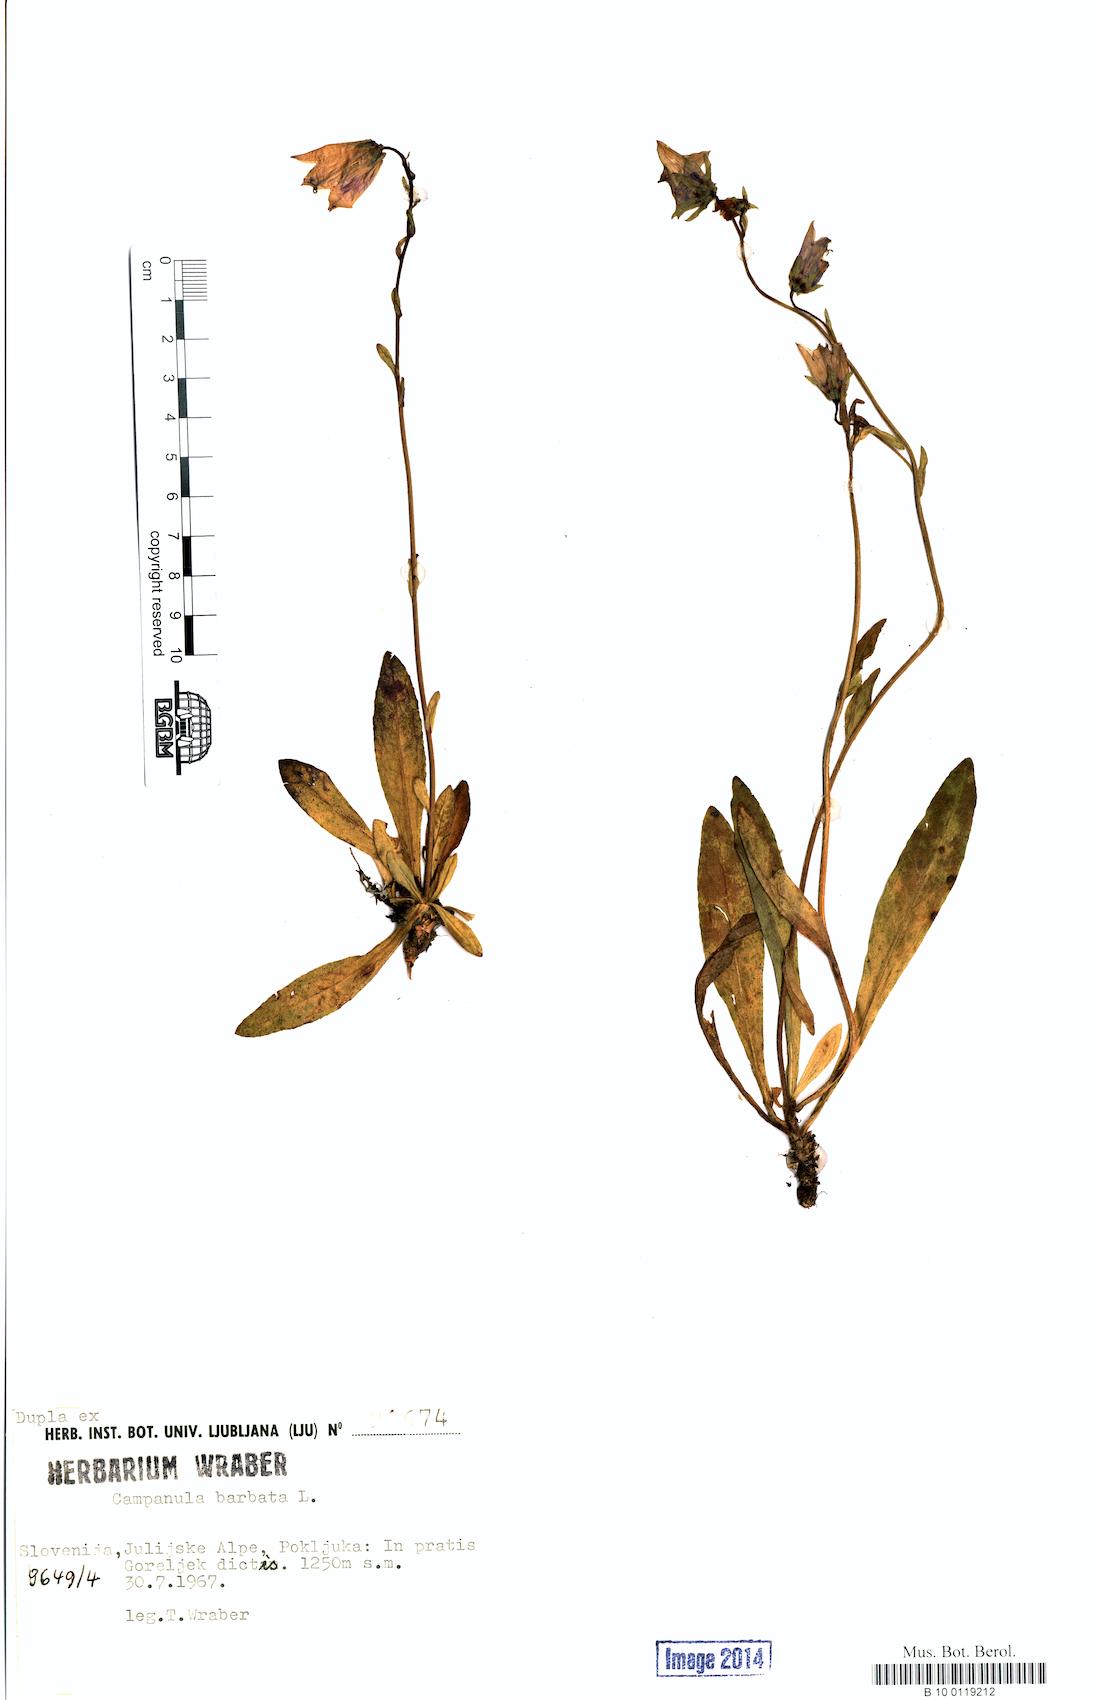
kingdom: Plantae
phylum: Tracheophyta
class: Magnoliopsida
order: Asterales
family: Campanulaceae
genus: Campanula
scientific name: Campanula barbata
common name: Bearded bellflower
